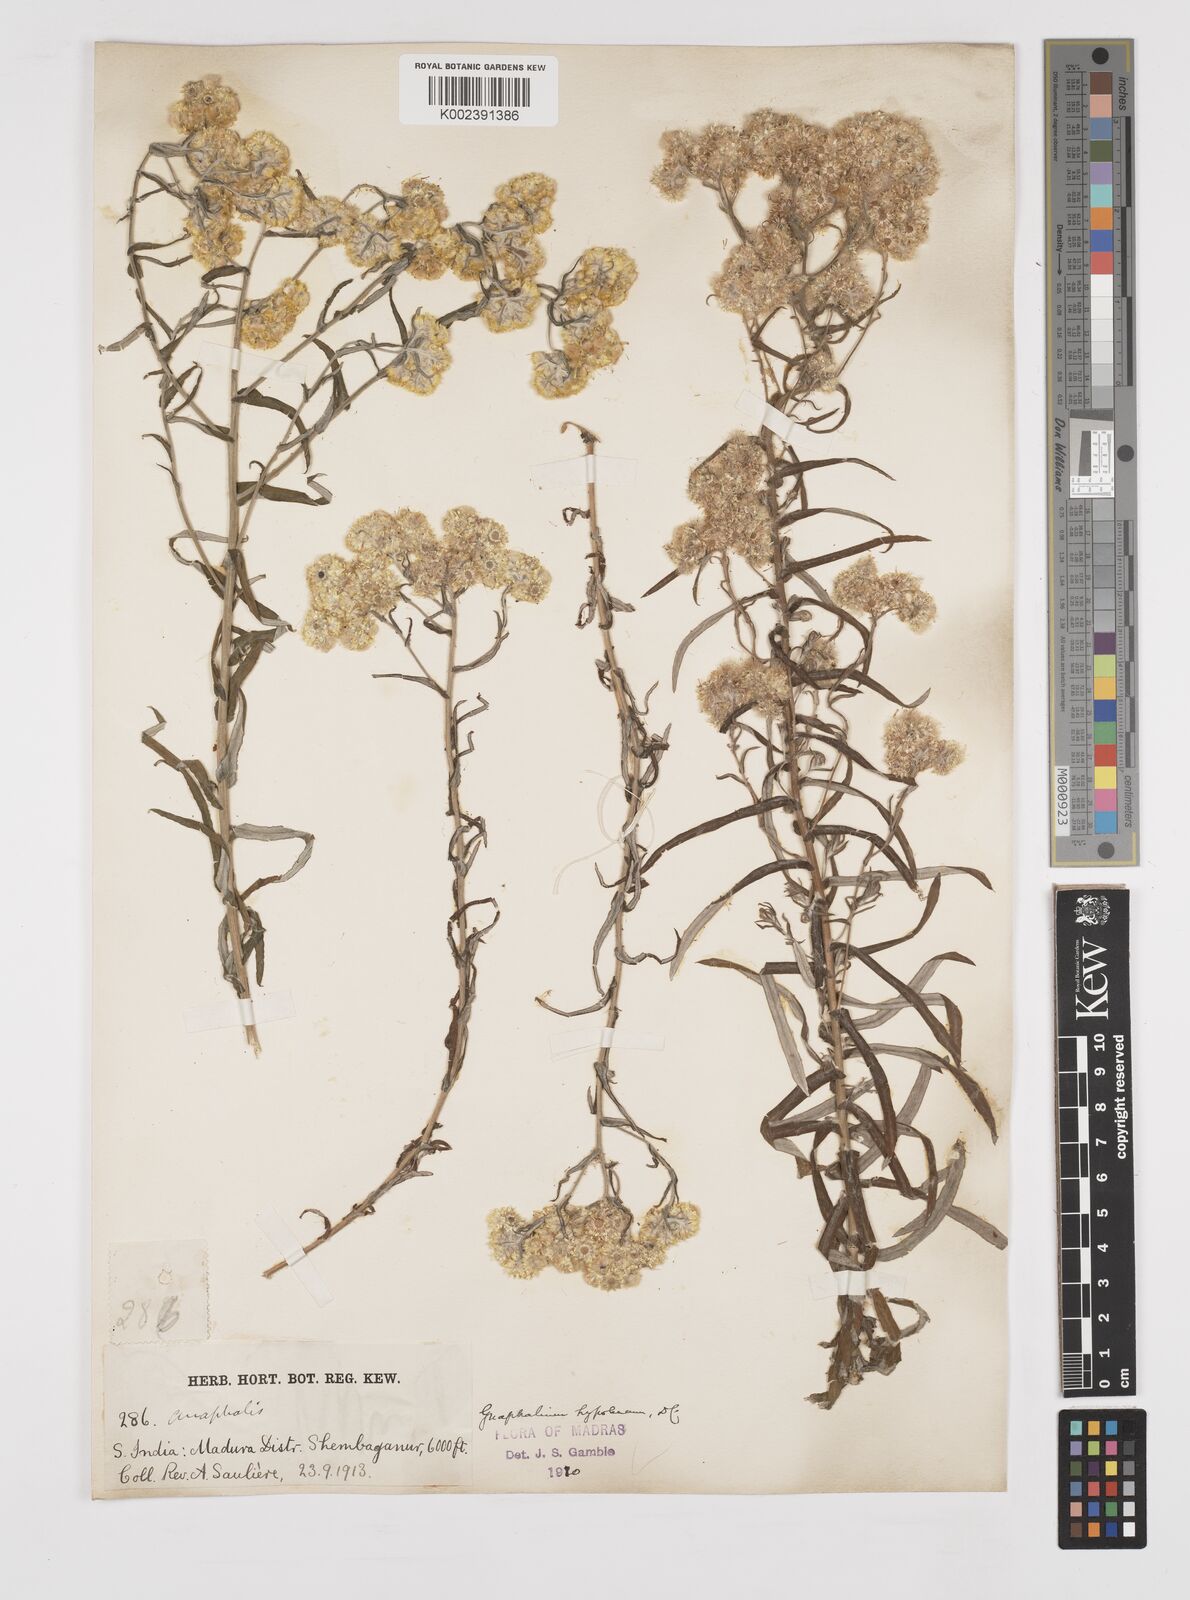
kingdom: Plantae
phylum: Tracheophyta
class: Magnoliopsida
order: Asterales
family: Asteraceae
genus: Pseudognaphalium
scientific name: Pseudognaphalium hypoleucum
